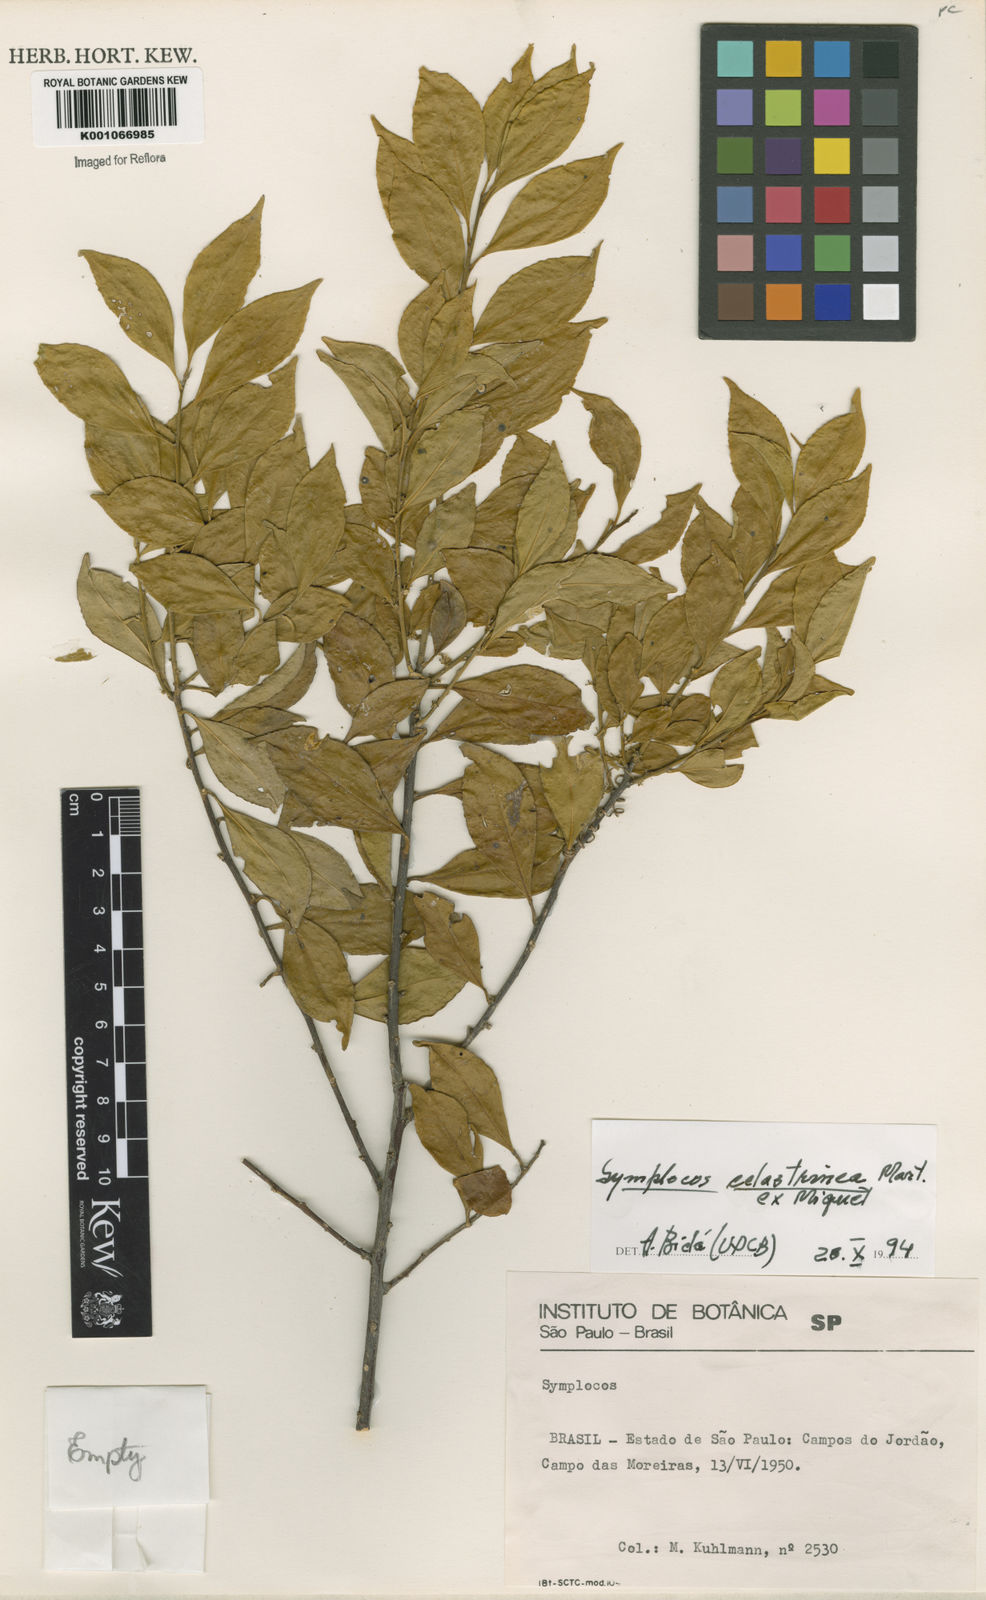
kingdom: Plantae
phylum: Tracheophyta
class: Magnoliopsida
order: Ericales
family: Symplocaceae
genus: Symplocos
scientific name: Symplocos
